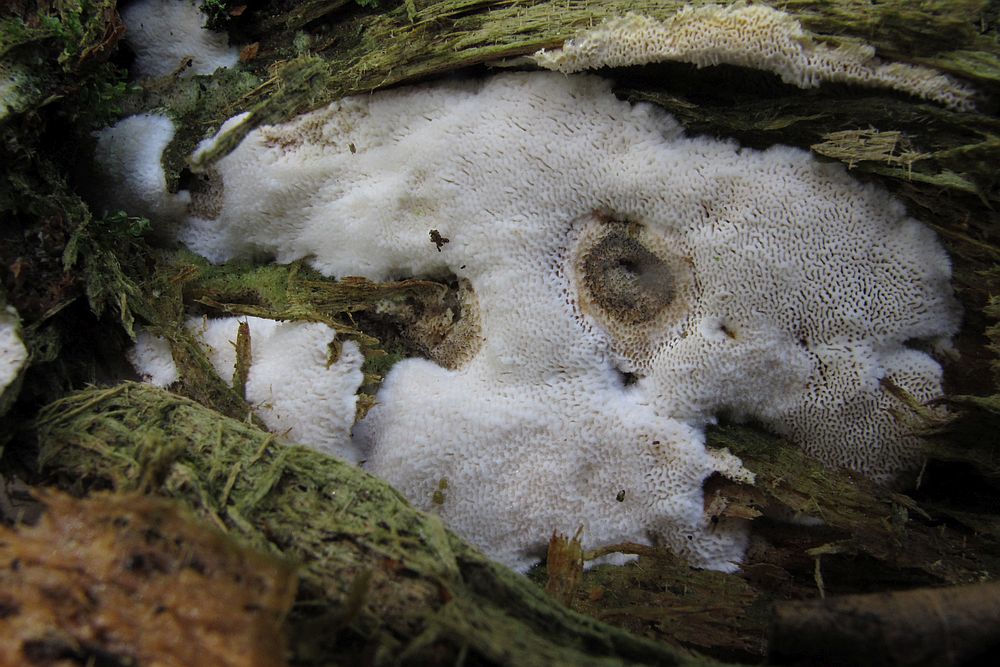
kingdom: Fungi
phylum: Basidiomycota
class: Agaricomycetes
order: Polyporales
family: Fomitopsidaceae
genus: Antrodia
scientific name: Antrodia sinuosa
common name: tømmer-sejporesvamp
